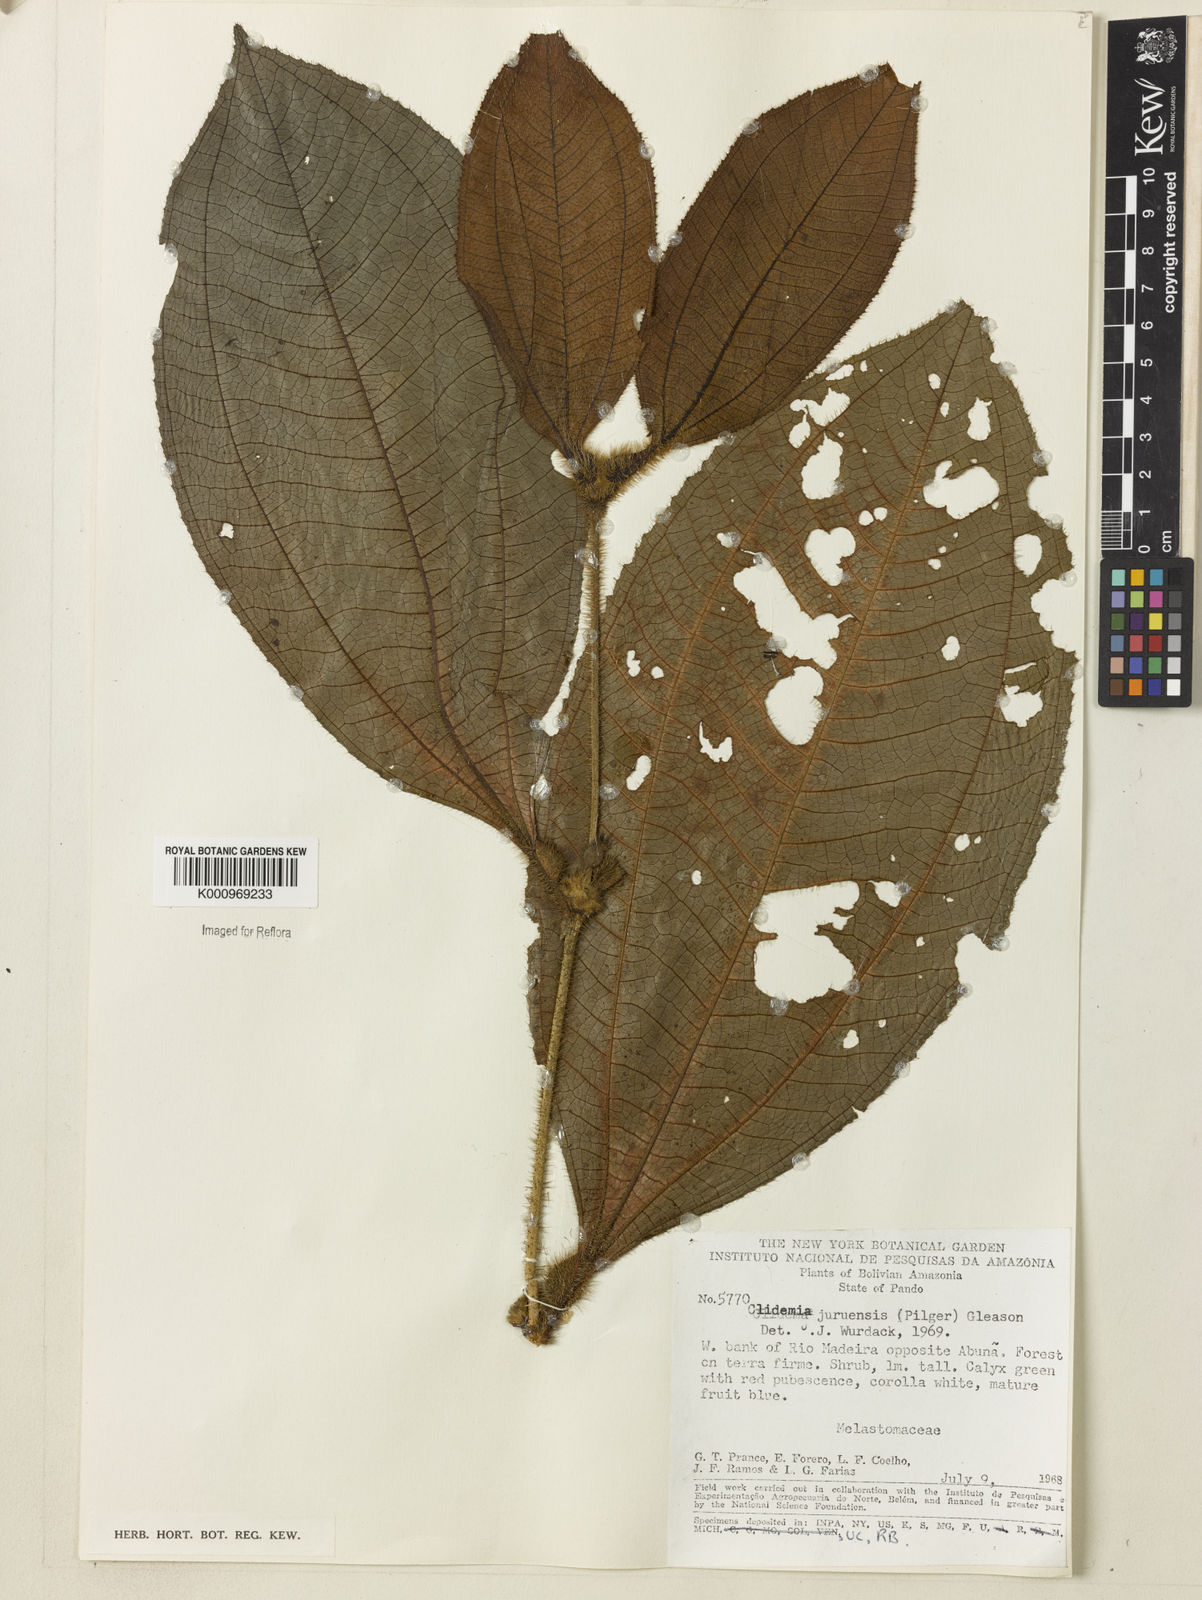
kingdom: Plantae
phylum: Tracheophyta
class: Magnoliopsida
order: Myrtales
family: Melastomataceae
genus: Miconia
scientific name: Miconia formicojuruensis
